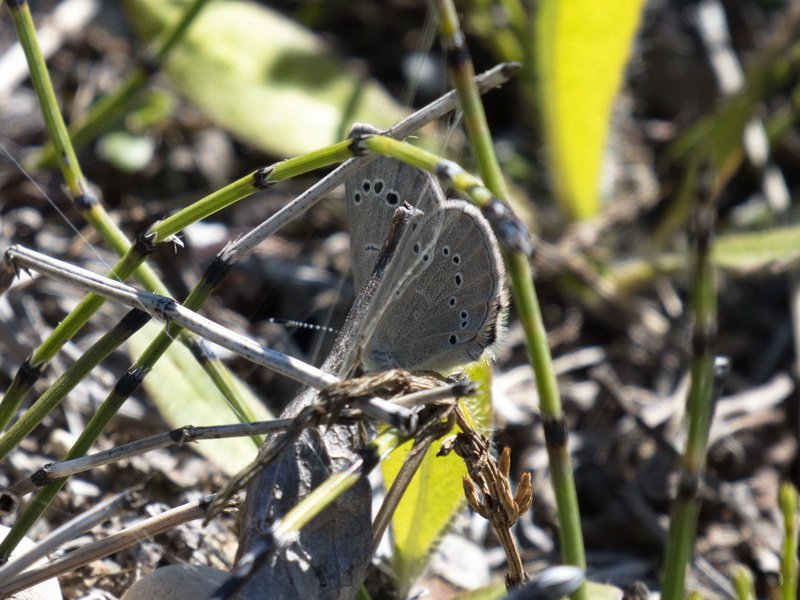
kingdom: Animalia
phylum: Arthropoda
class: Insecta
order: Lepidoptera
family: Lycaenidae
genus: Glaucopsyche
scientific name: Glaucopsyche lygdamus
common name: Silvery Blue
